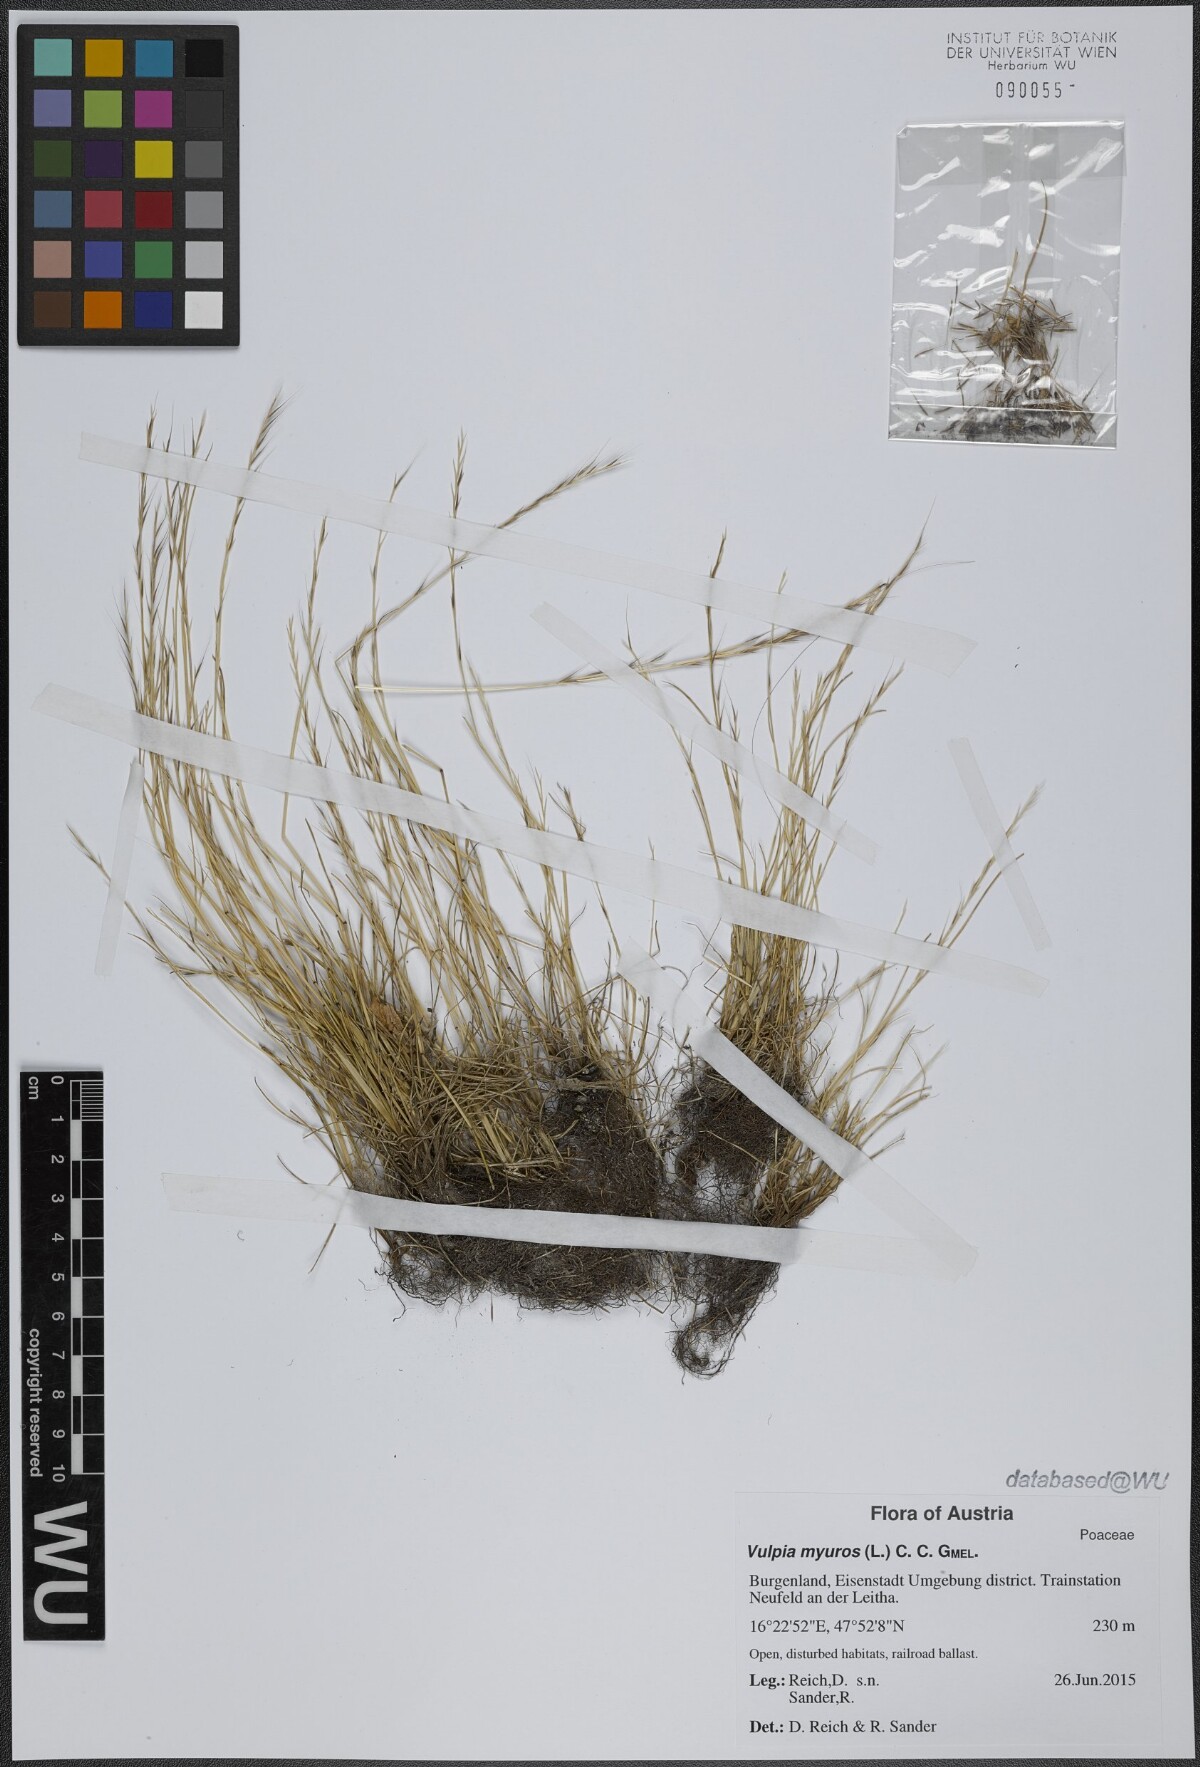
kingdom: Plantae
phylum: Tracheophyta
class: Liliopsida
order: Poales
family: Poaceae
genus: Festuca
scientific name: Festuca myuros
